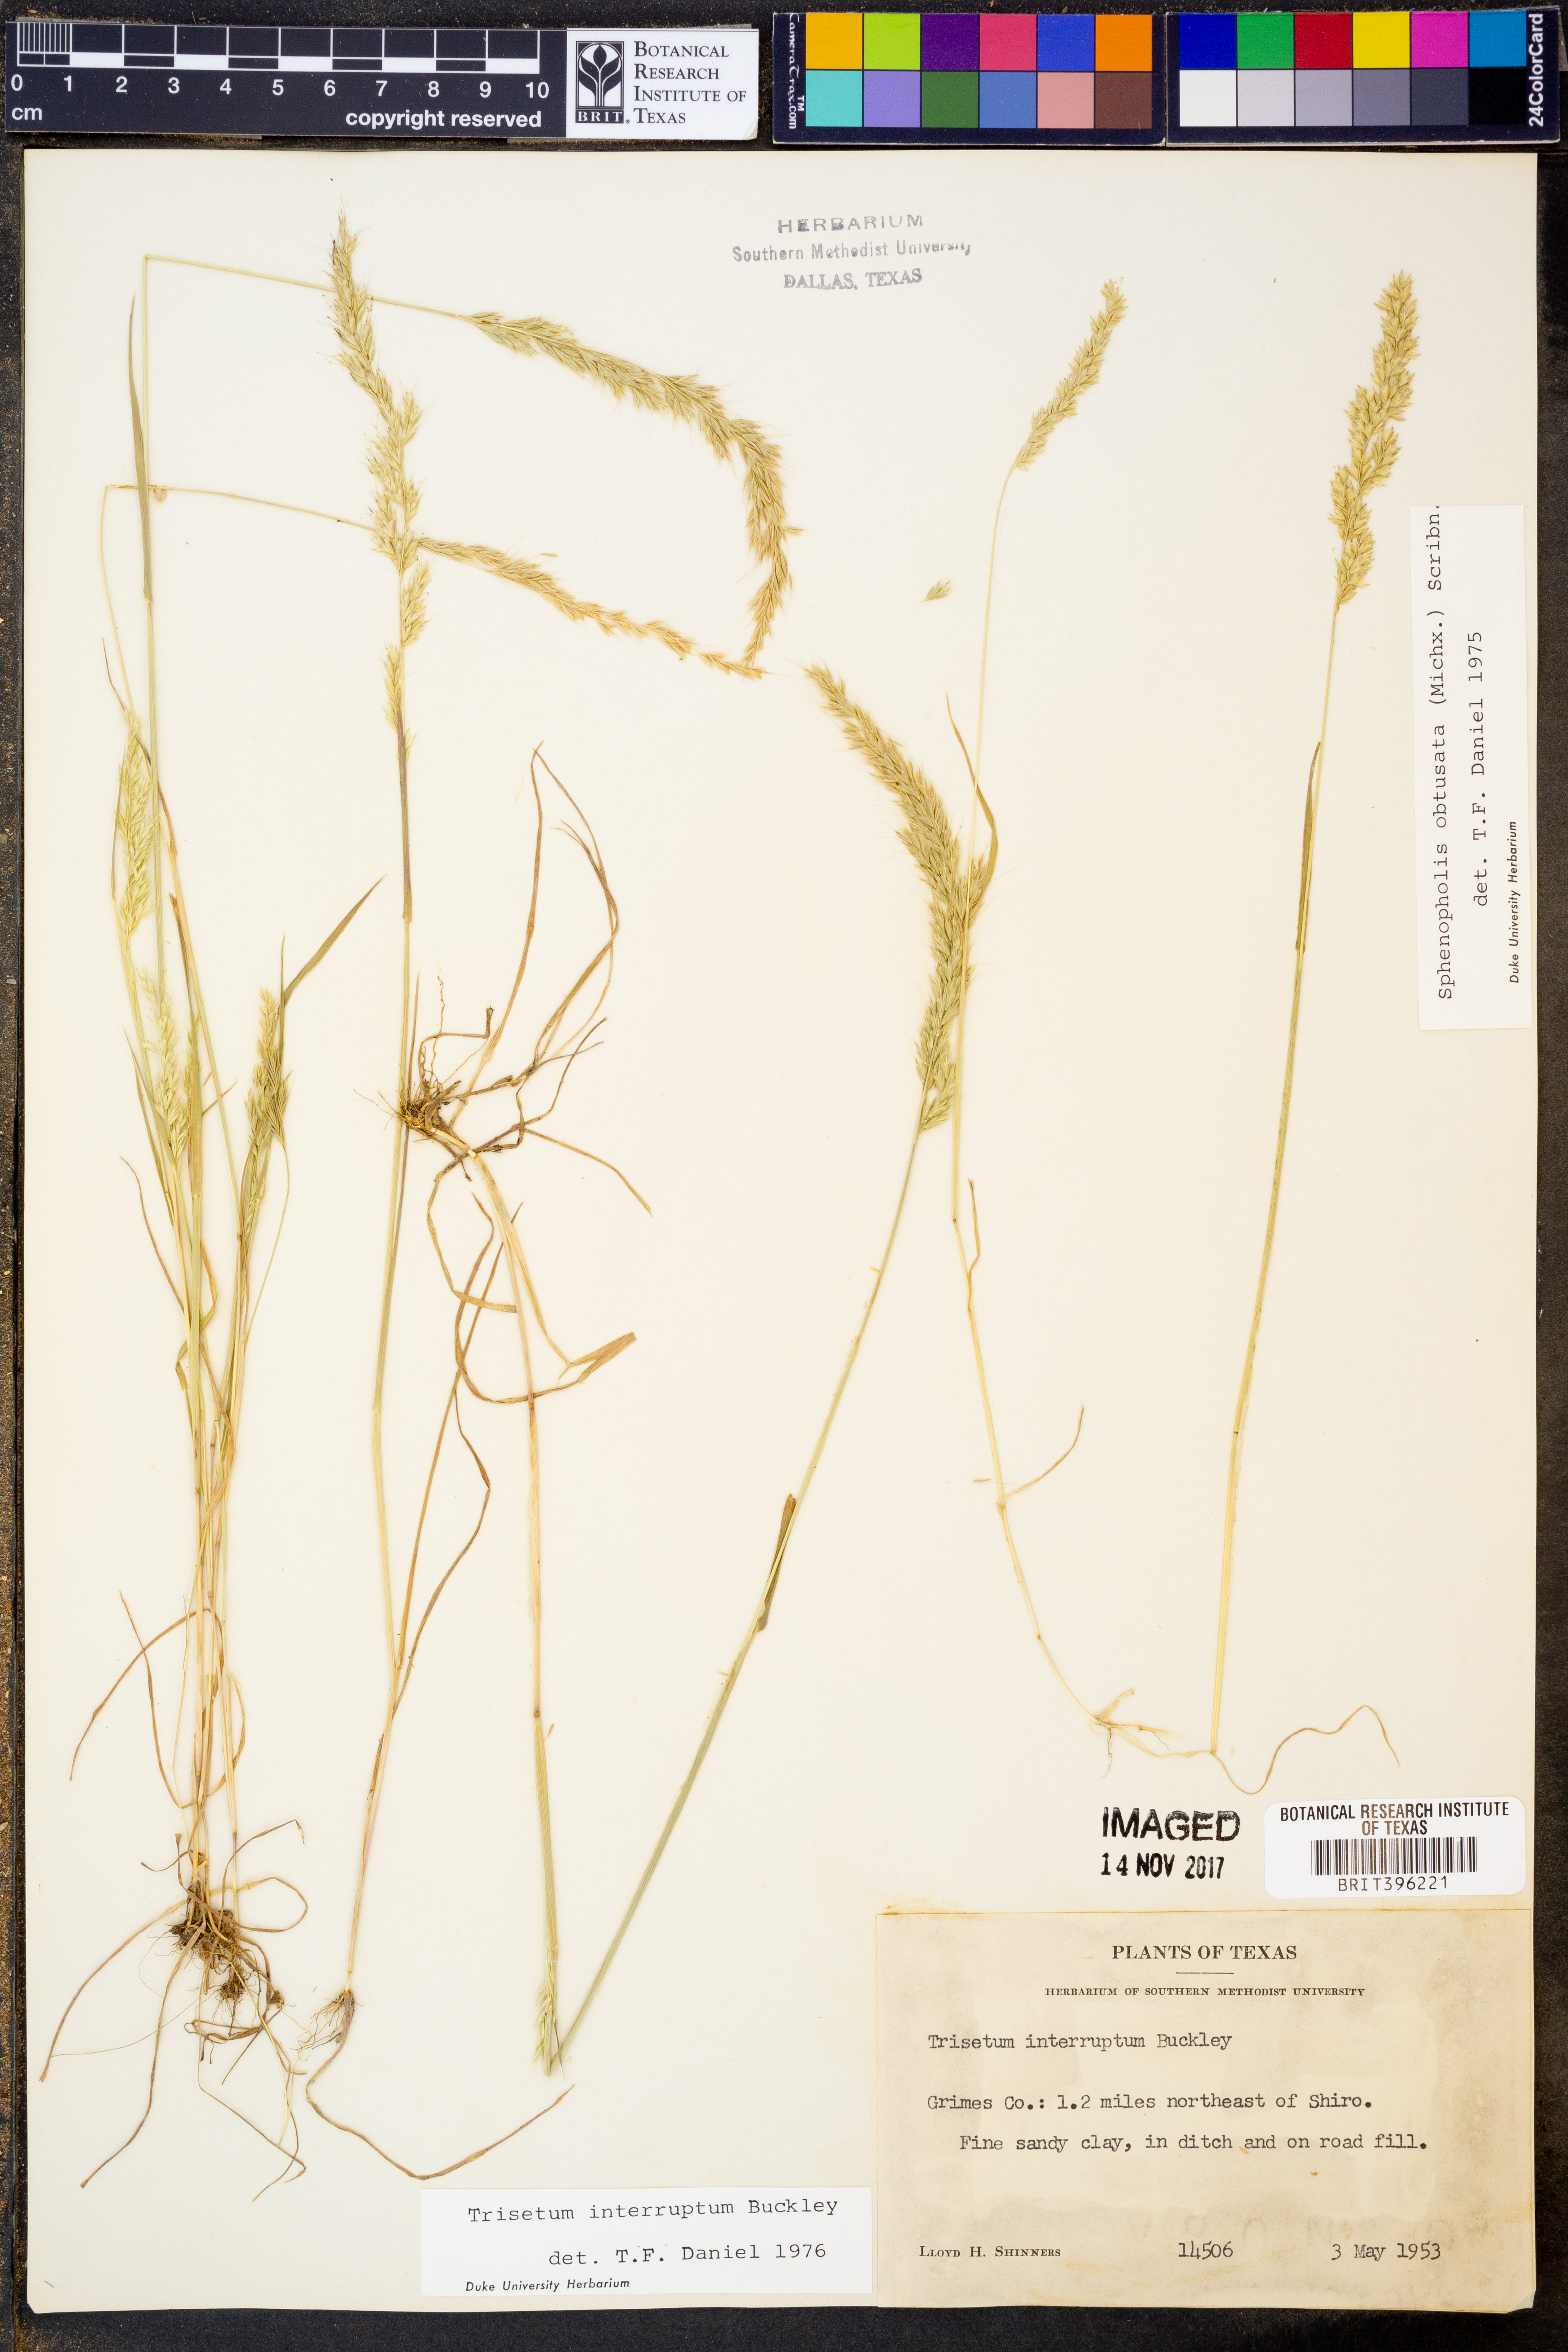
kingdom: Plantae
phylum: Tracheophyta
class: Liliopsida
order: Poales
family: Poaceae
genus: Sphenopholis
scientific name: Sphenopholis interrupta
